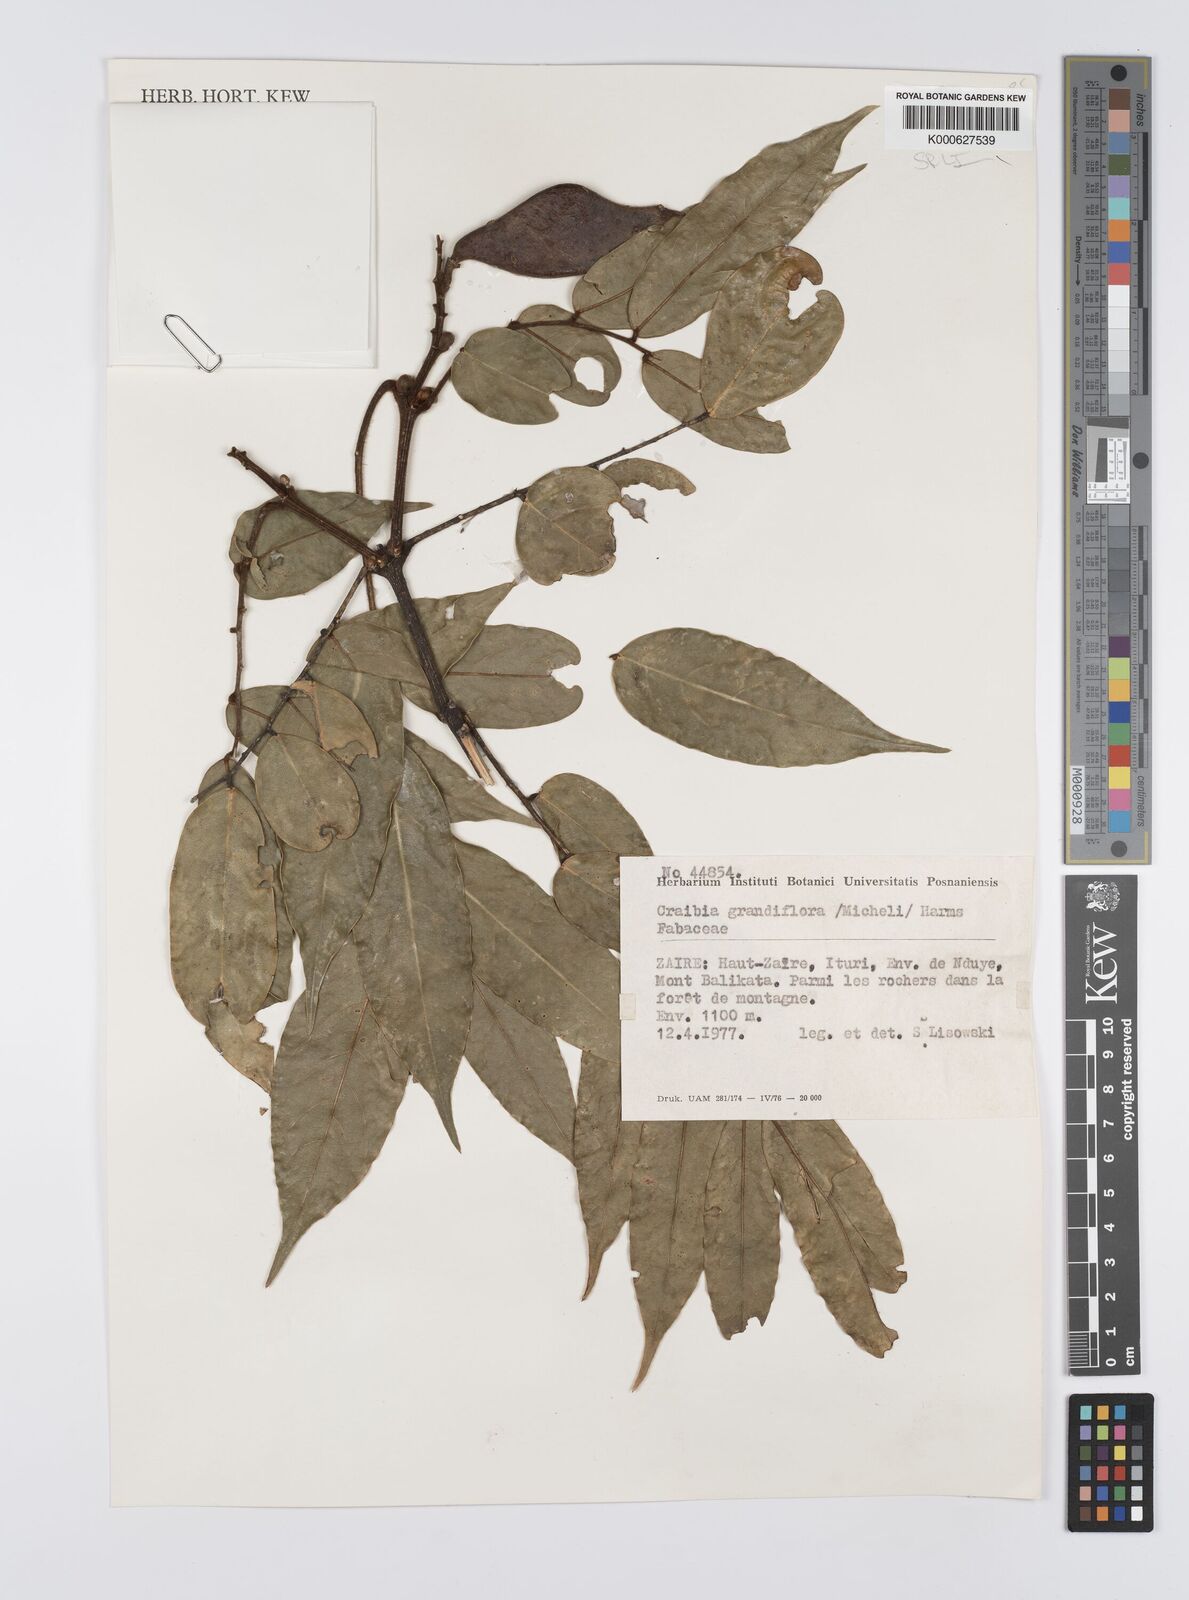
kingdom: Plantae
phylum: Tracheophyta
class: Magnoliopsida
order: Fabales
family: Fabaceae
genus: Craibia
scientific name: Craibia grandiflora
